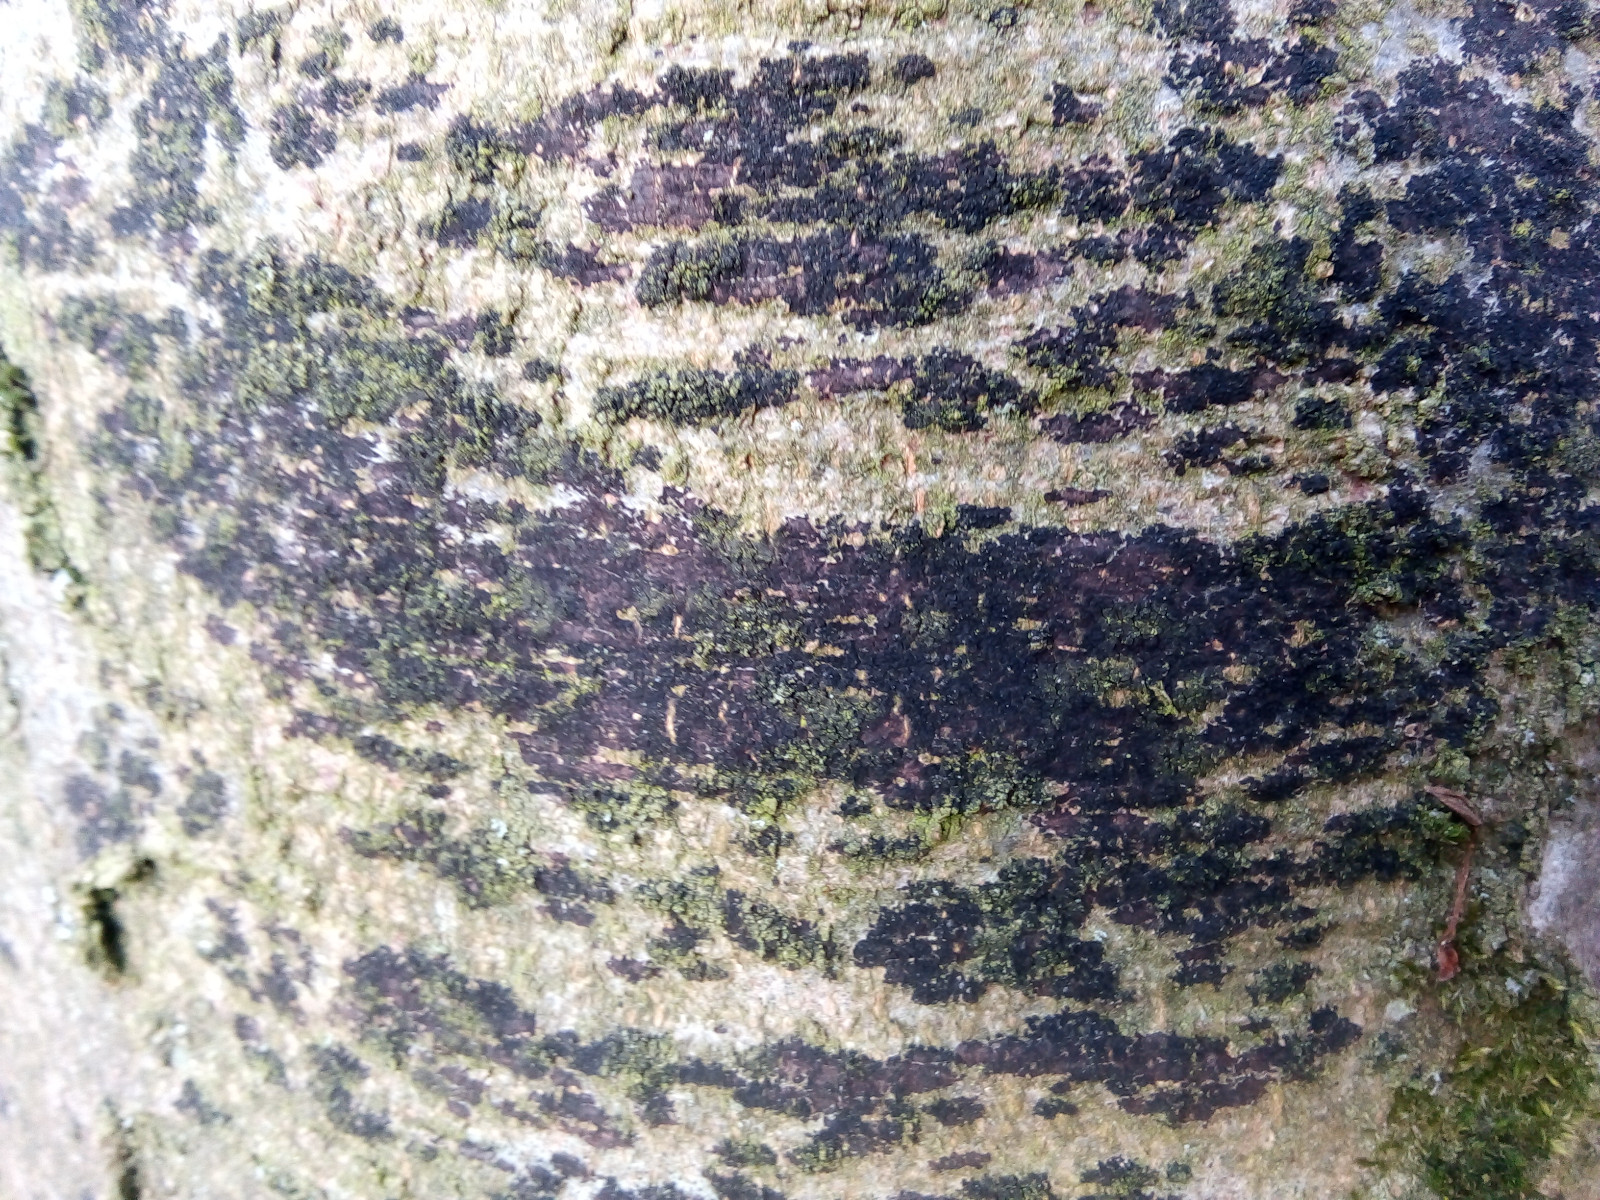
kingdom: Fungi
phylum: Ascomycota
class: Leotiomycetes
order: Rhytismatales
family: Ascodichaenaceae
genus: Ascodichaena
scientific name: Ascodichaena rugosa
